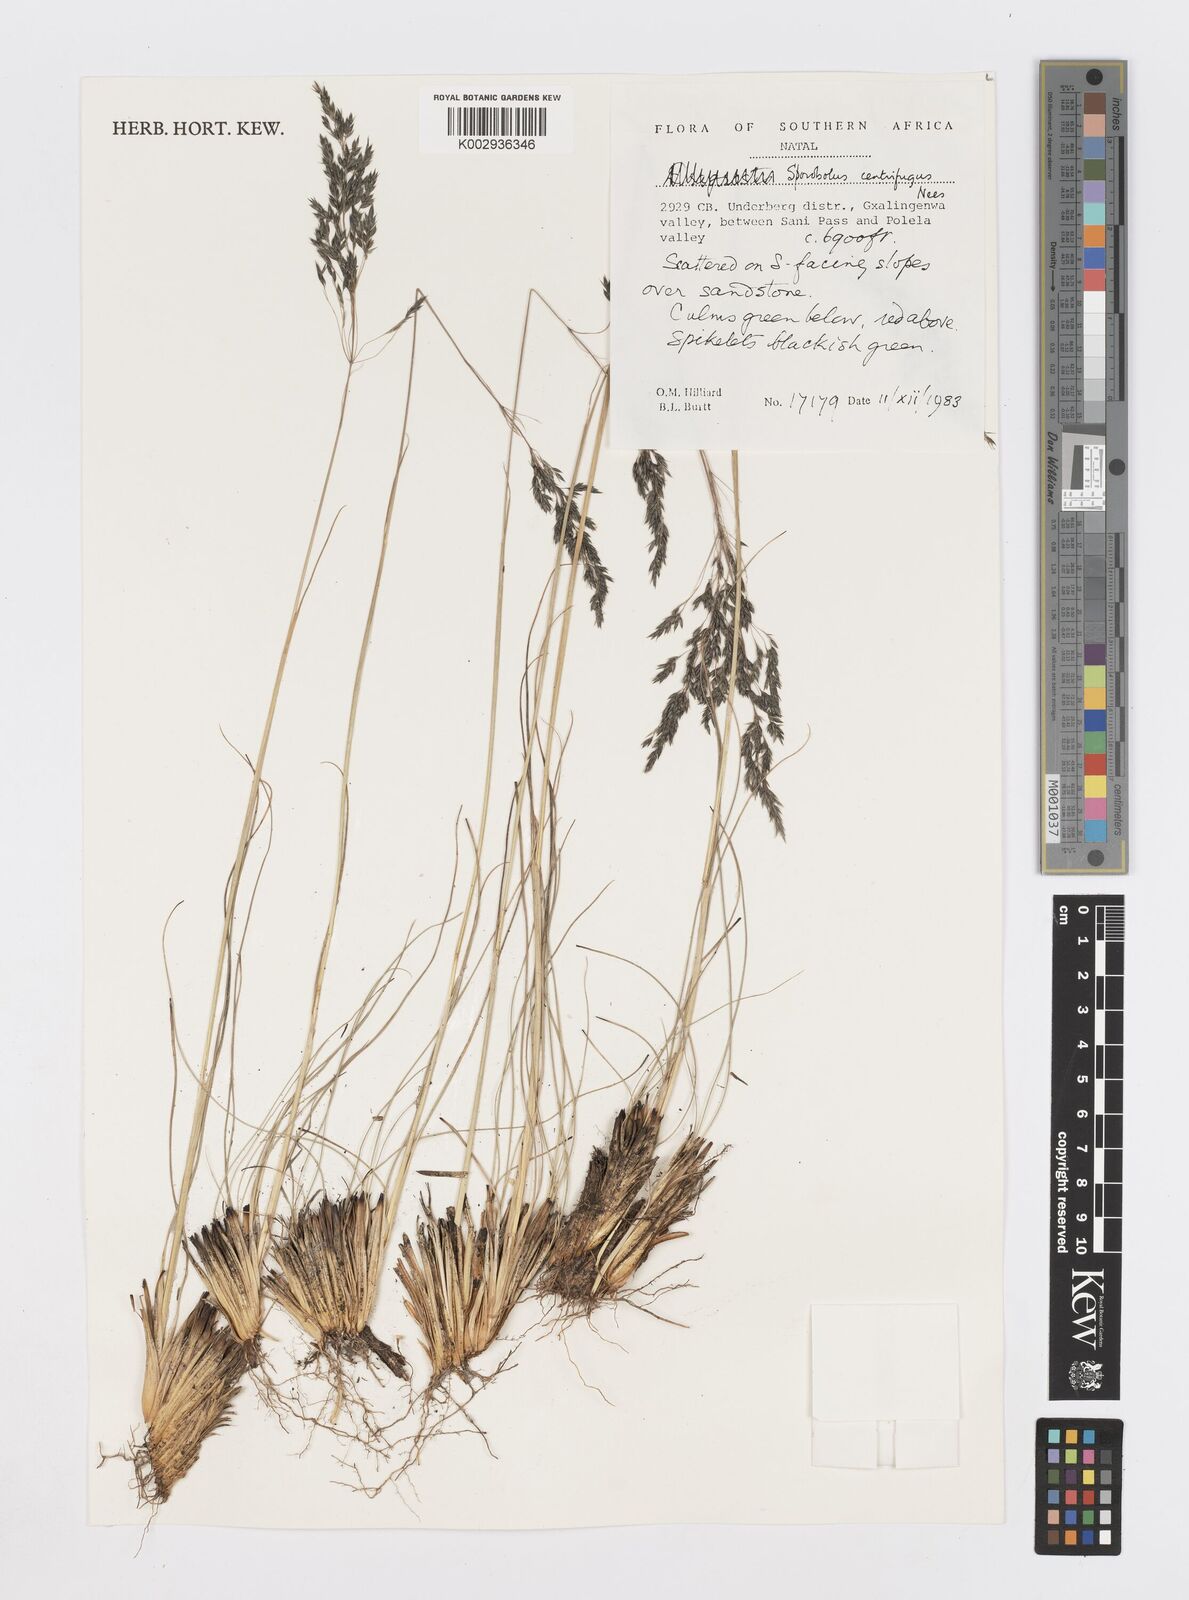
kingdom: Plantae
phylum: Tracheophyta
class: Liliopsida
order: Poales
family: Poaceae
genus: Sporobolus
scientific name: Sporobolus centrifugus
